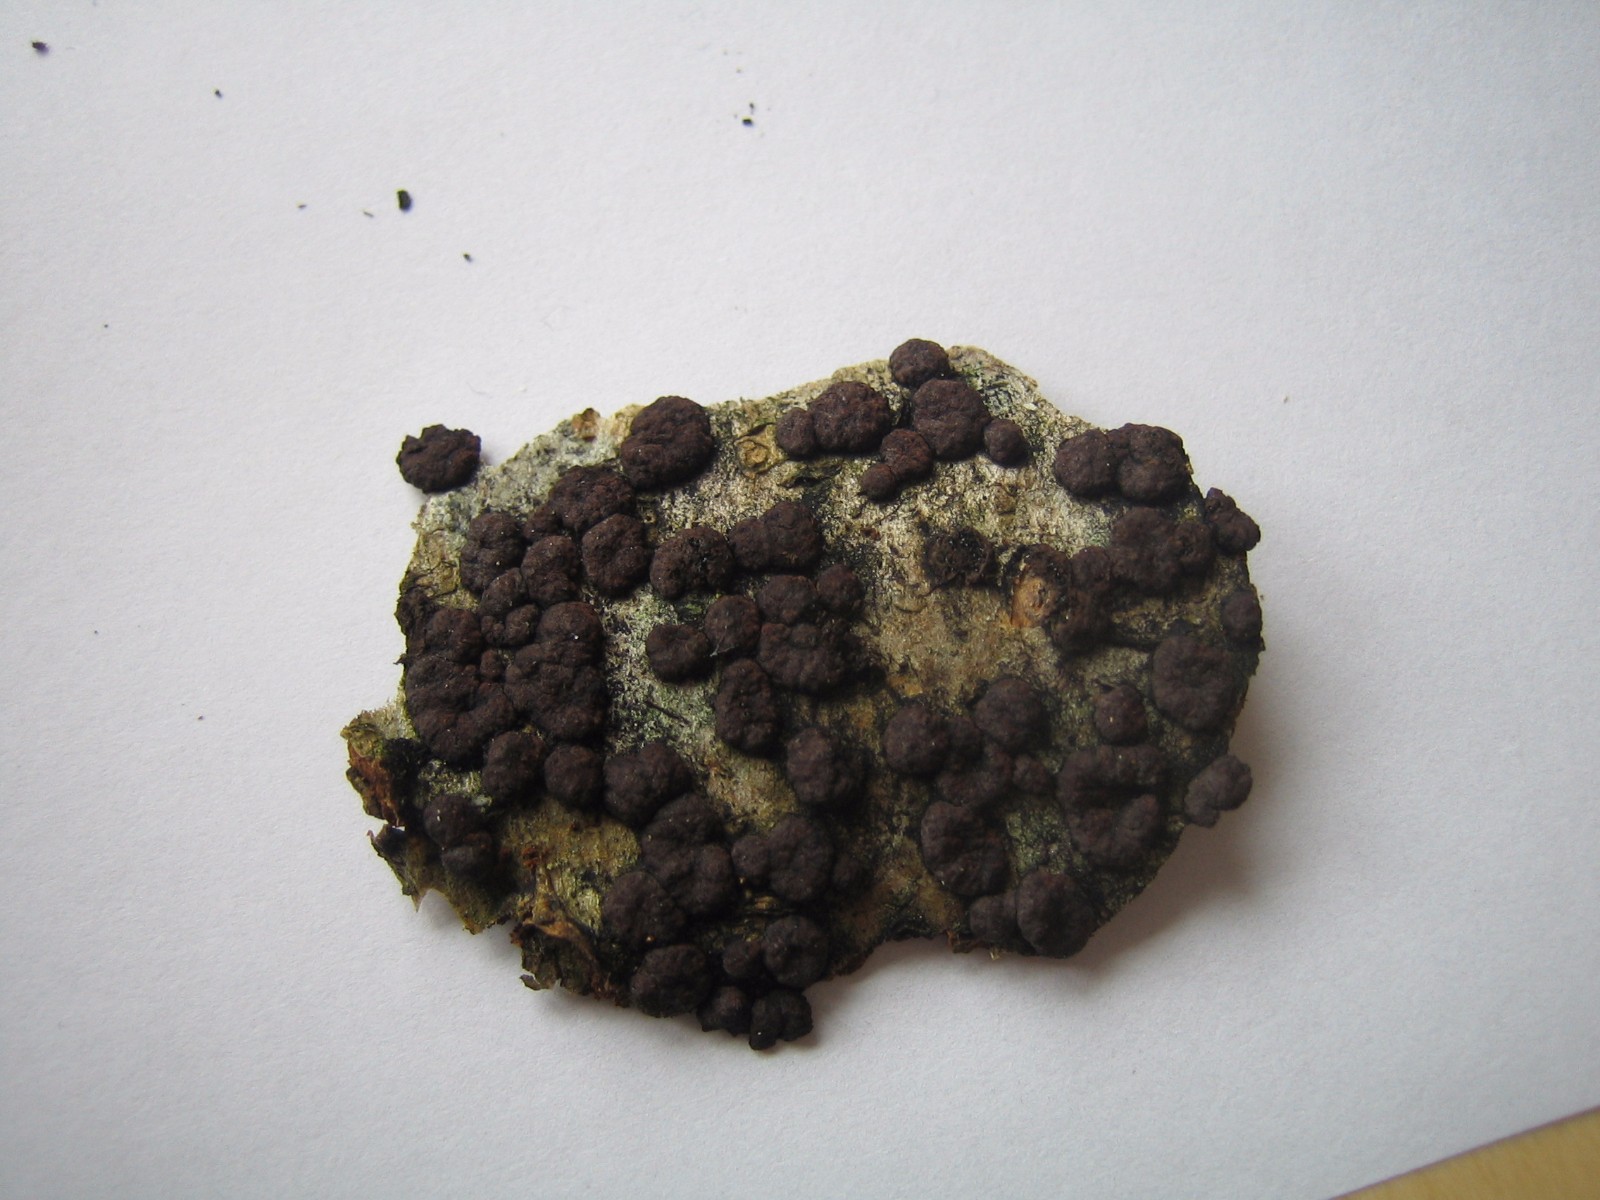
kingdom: Fungi
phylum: Ascomycota
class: Sordariomycetes
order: Xylariales
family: Hypoxylaceae
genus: Hypoxylon
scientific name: Hypoxylon fuscoides
